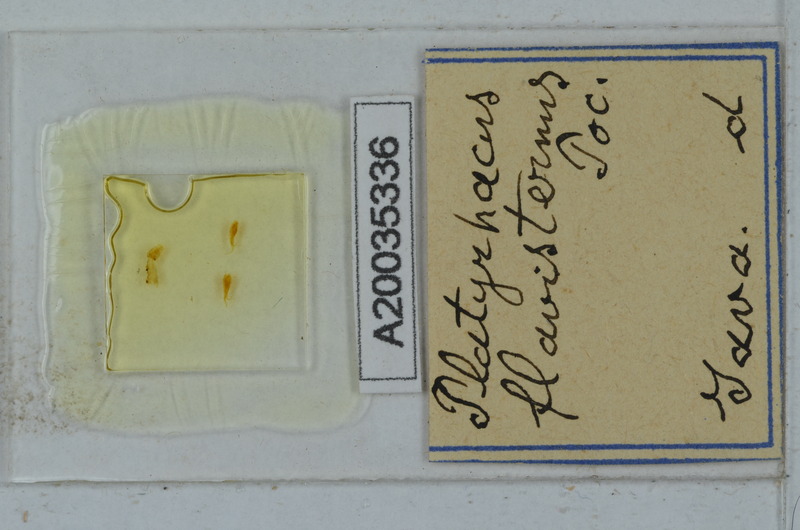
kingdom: Animalia
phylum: Arthropoda
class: Diplopoda
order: Polydesmida
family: Platyrhacidae
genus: Platyrhacus
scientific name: Platyrhacus flavisternus
